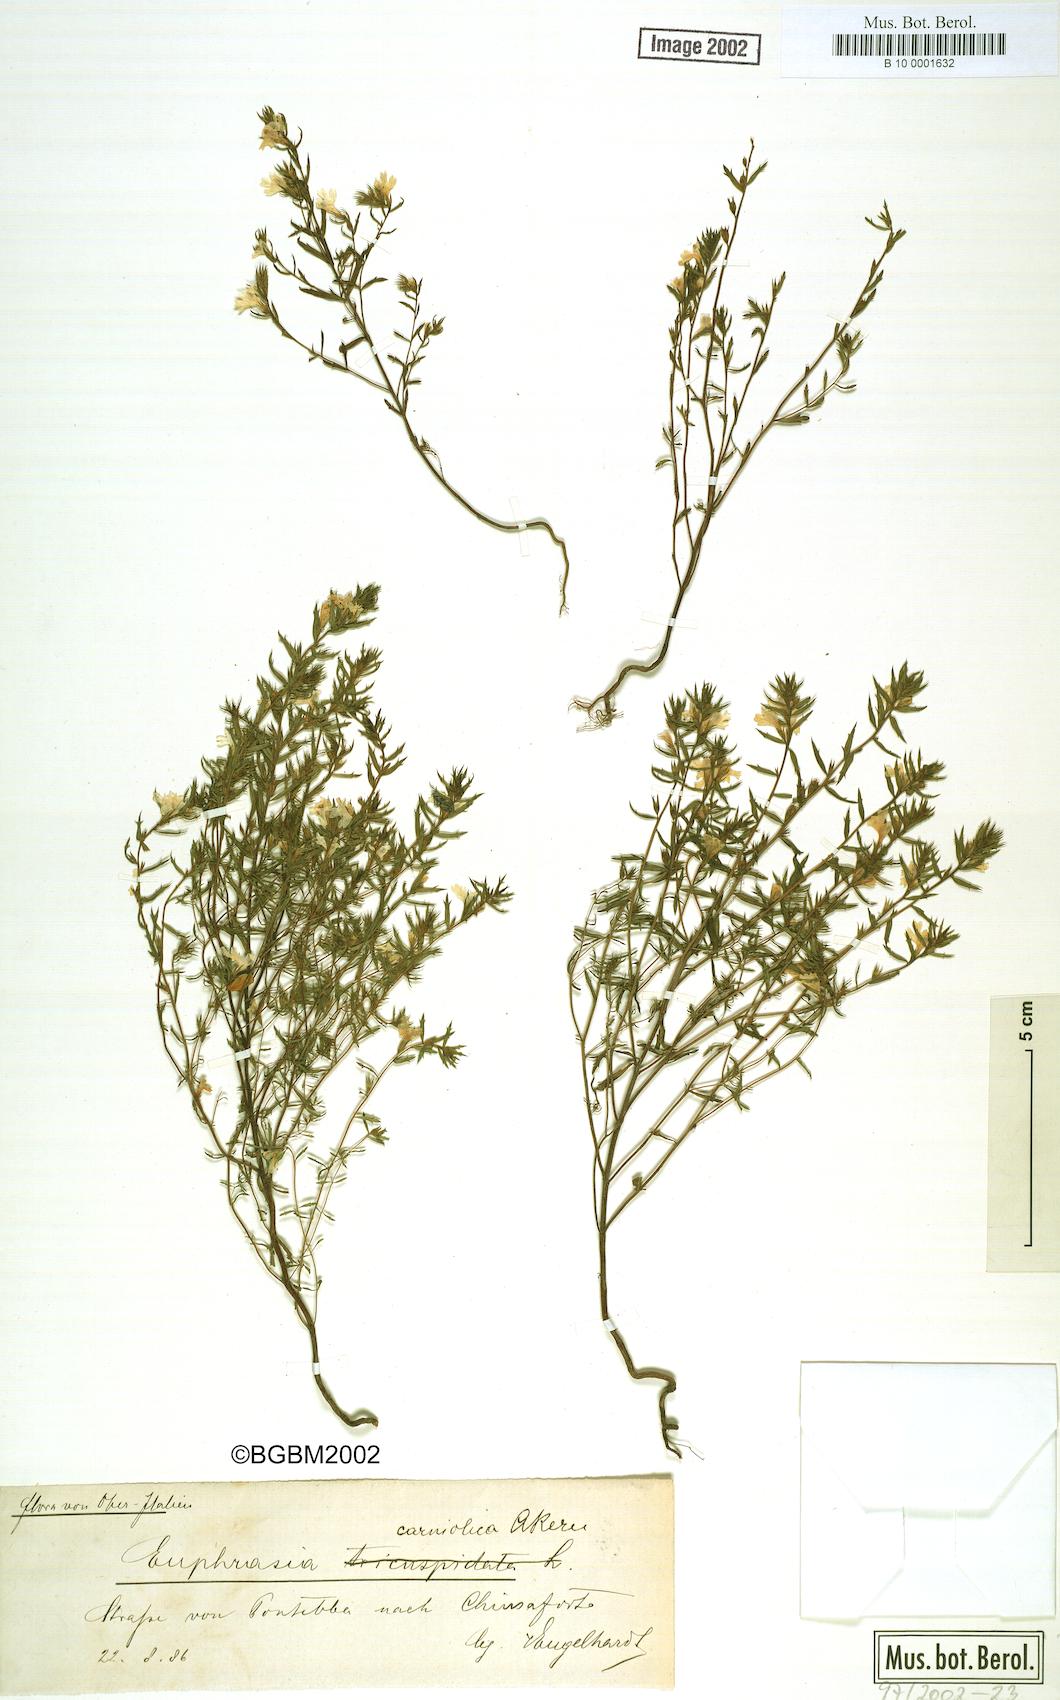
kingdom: Plantae
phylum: Tracheophyta
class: Magnoliopsida
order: Lamiales
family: Orobanchaceae
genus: Euphrasia
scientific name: Euphrasia officinalis
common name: Eyebright
